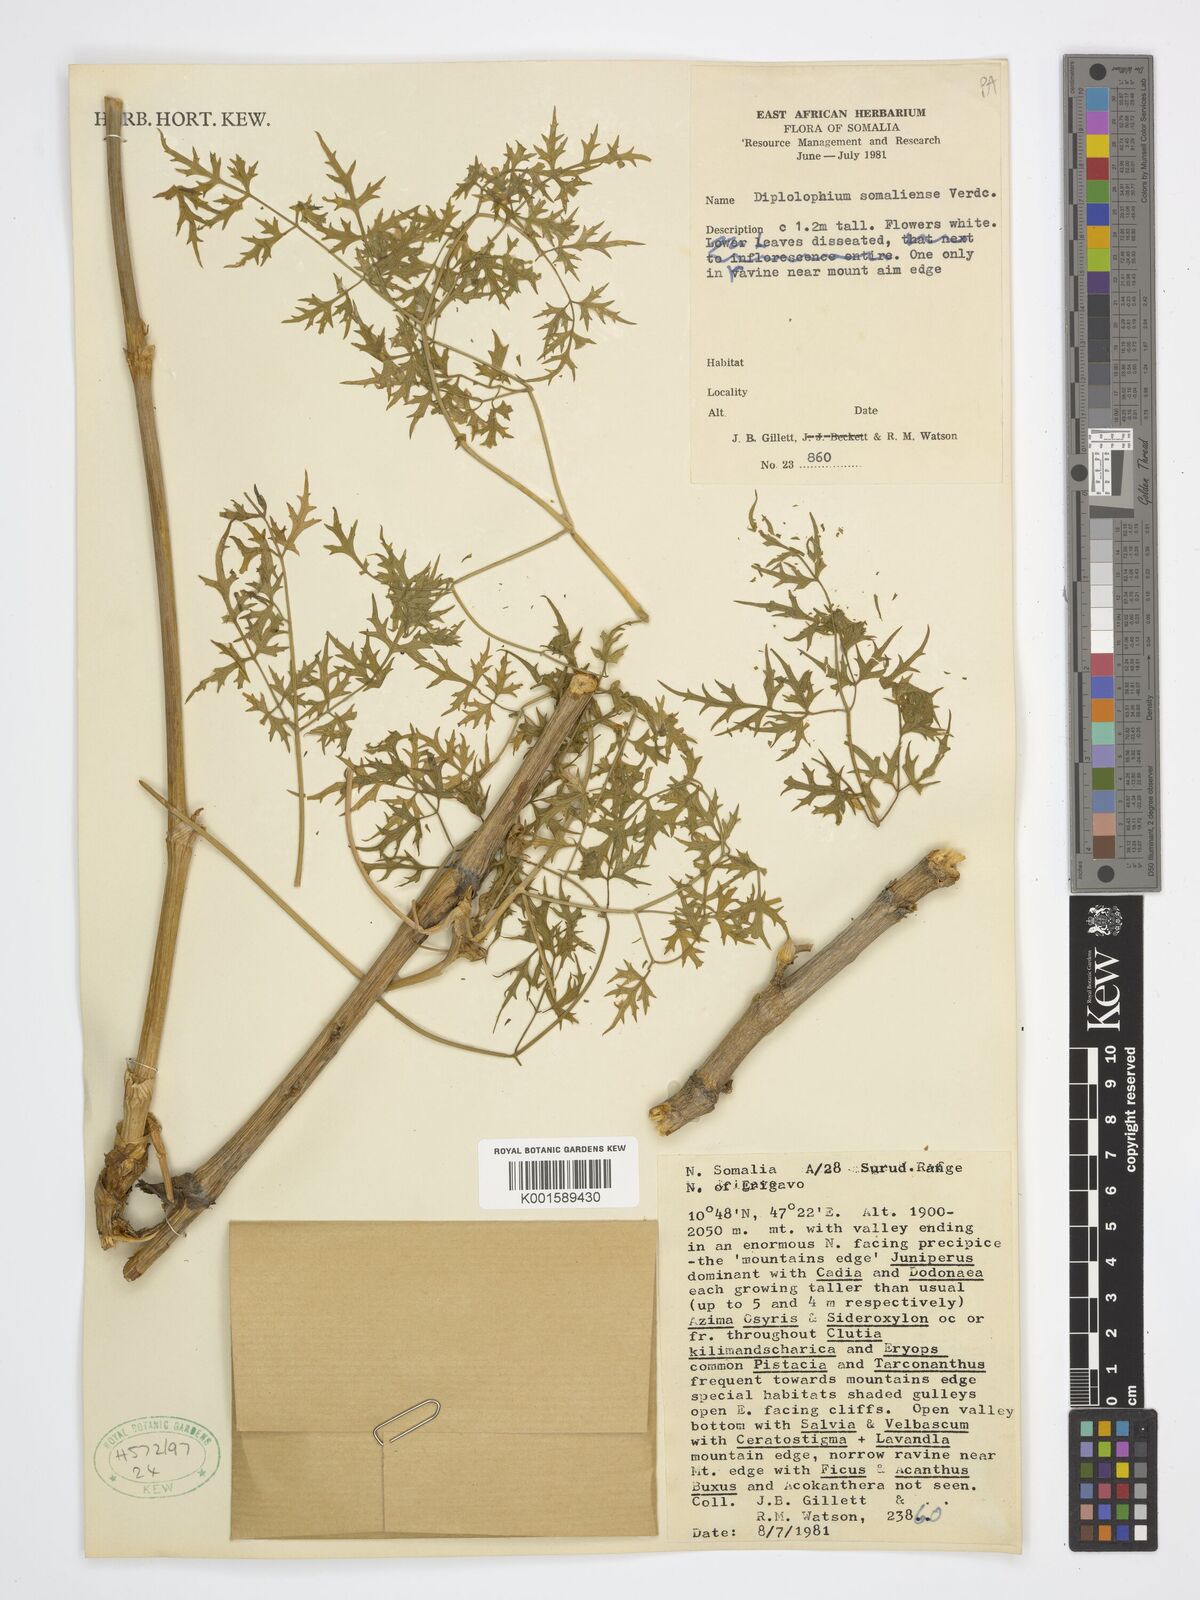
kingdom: Plantae
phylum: Tracheophyta
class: Magnoliopsida
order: Apiales
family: Apiaceae
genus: Diplolophium
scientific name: Diplolophium somaliense
